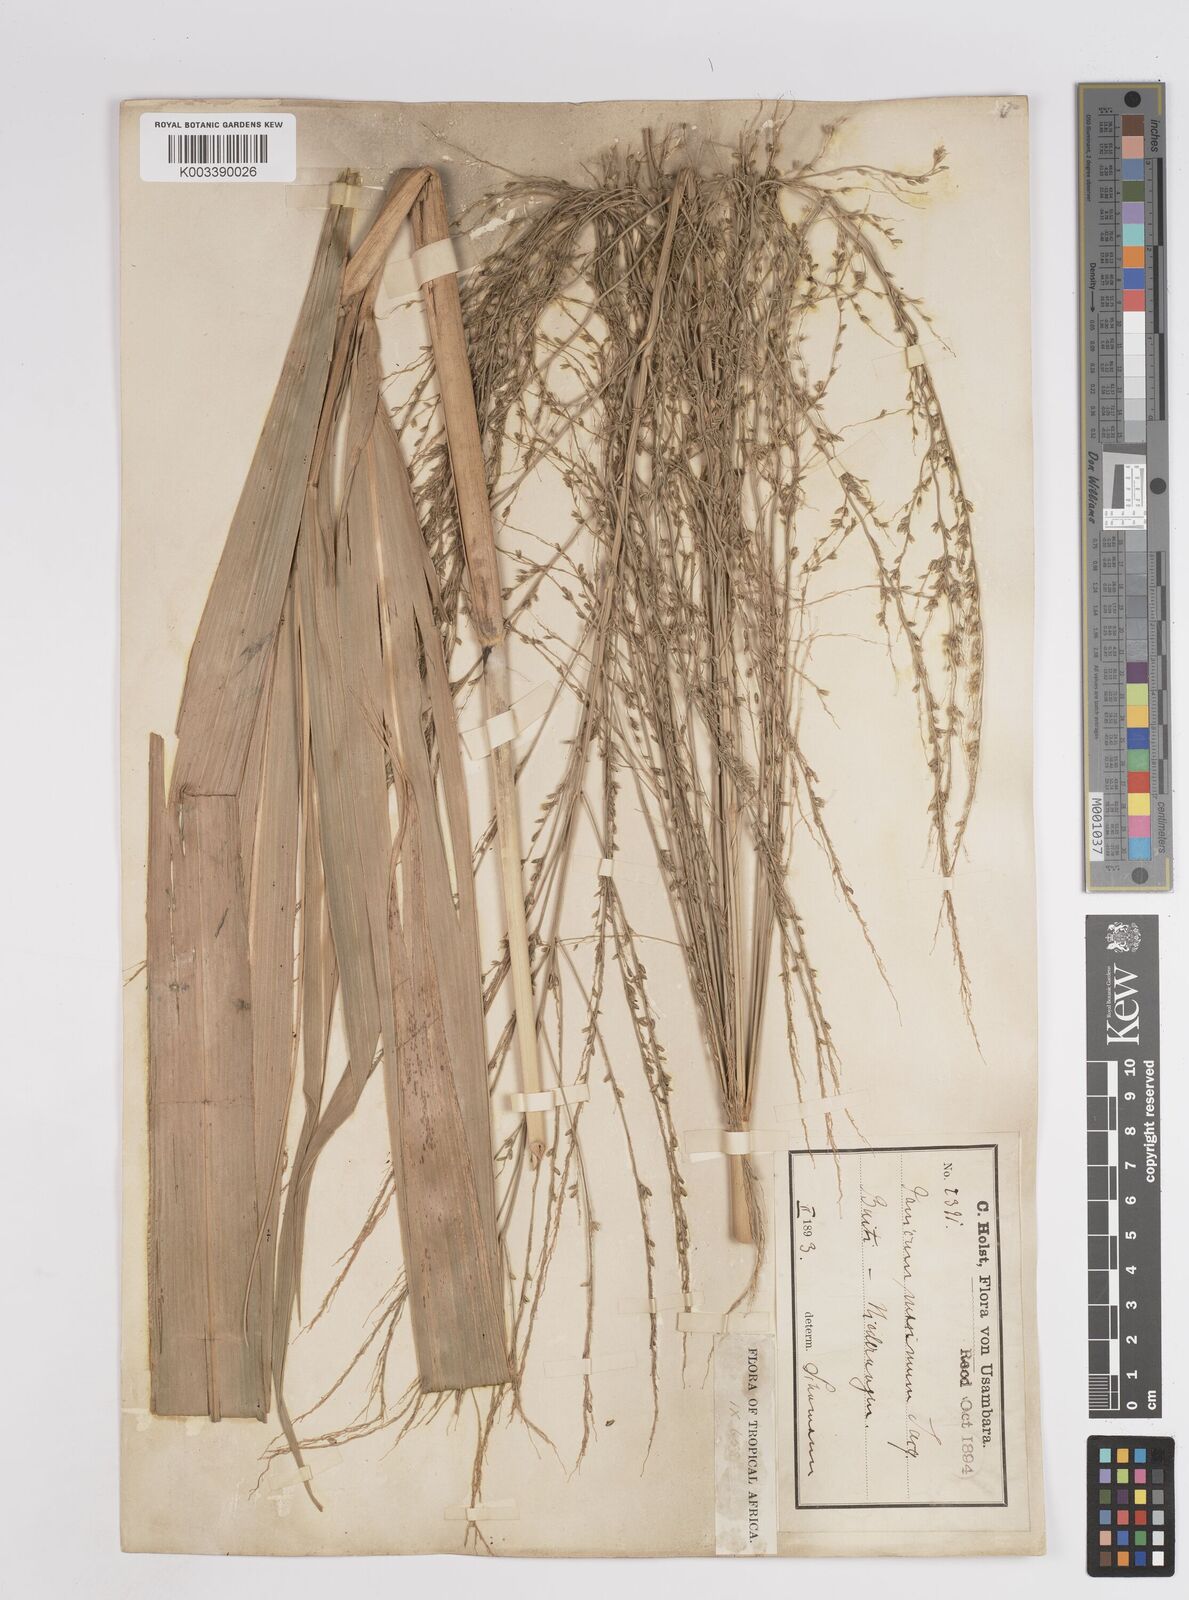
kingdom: Plantae
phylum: Tracheophyta
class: Liliopsida
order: Poales
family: Poaceae
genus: Megathyrsus
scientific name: Megathyrsus maximus
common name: Guineagrass
